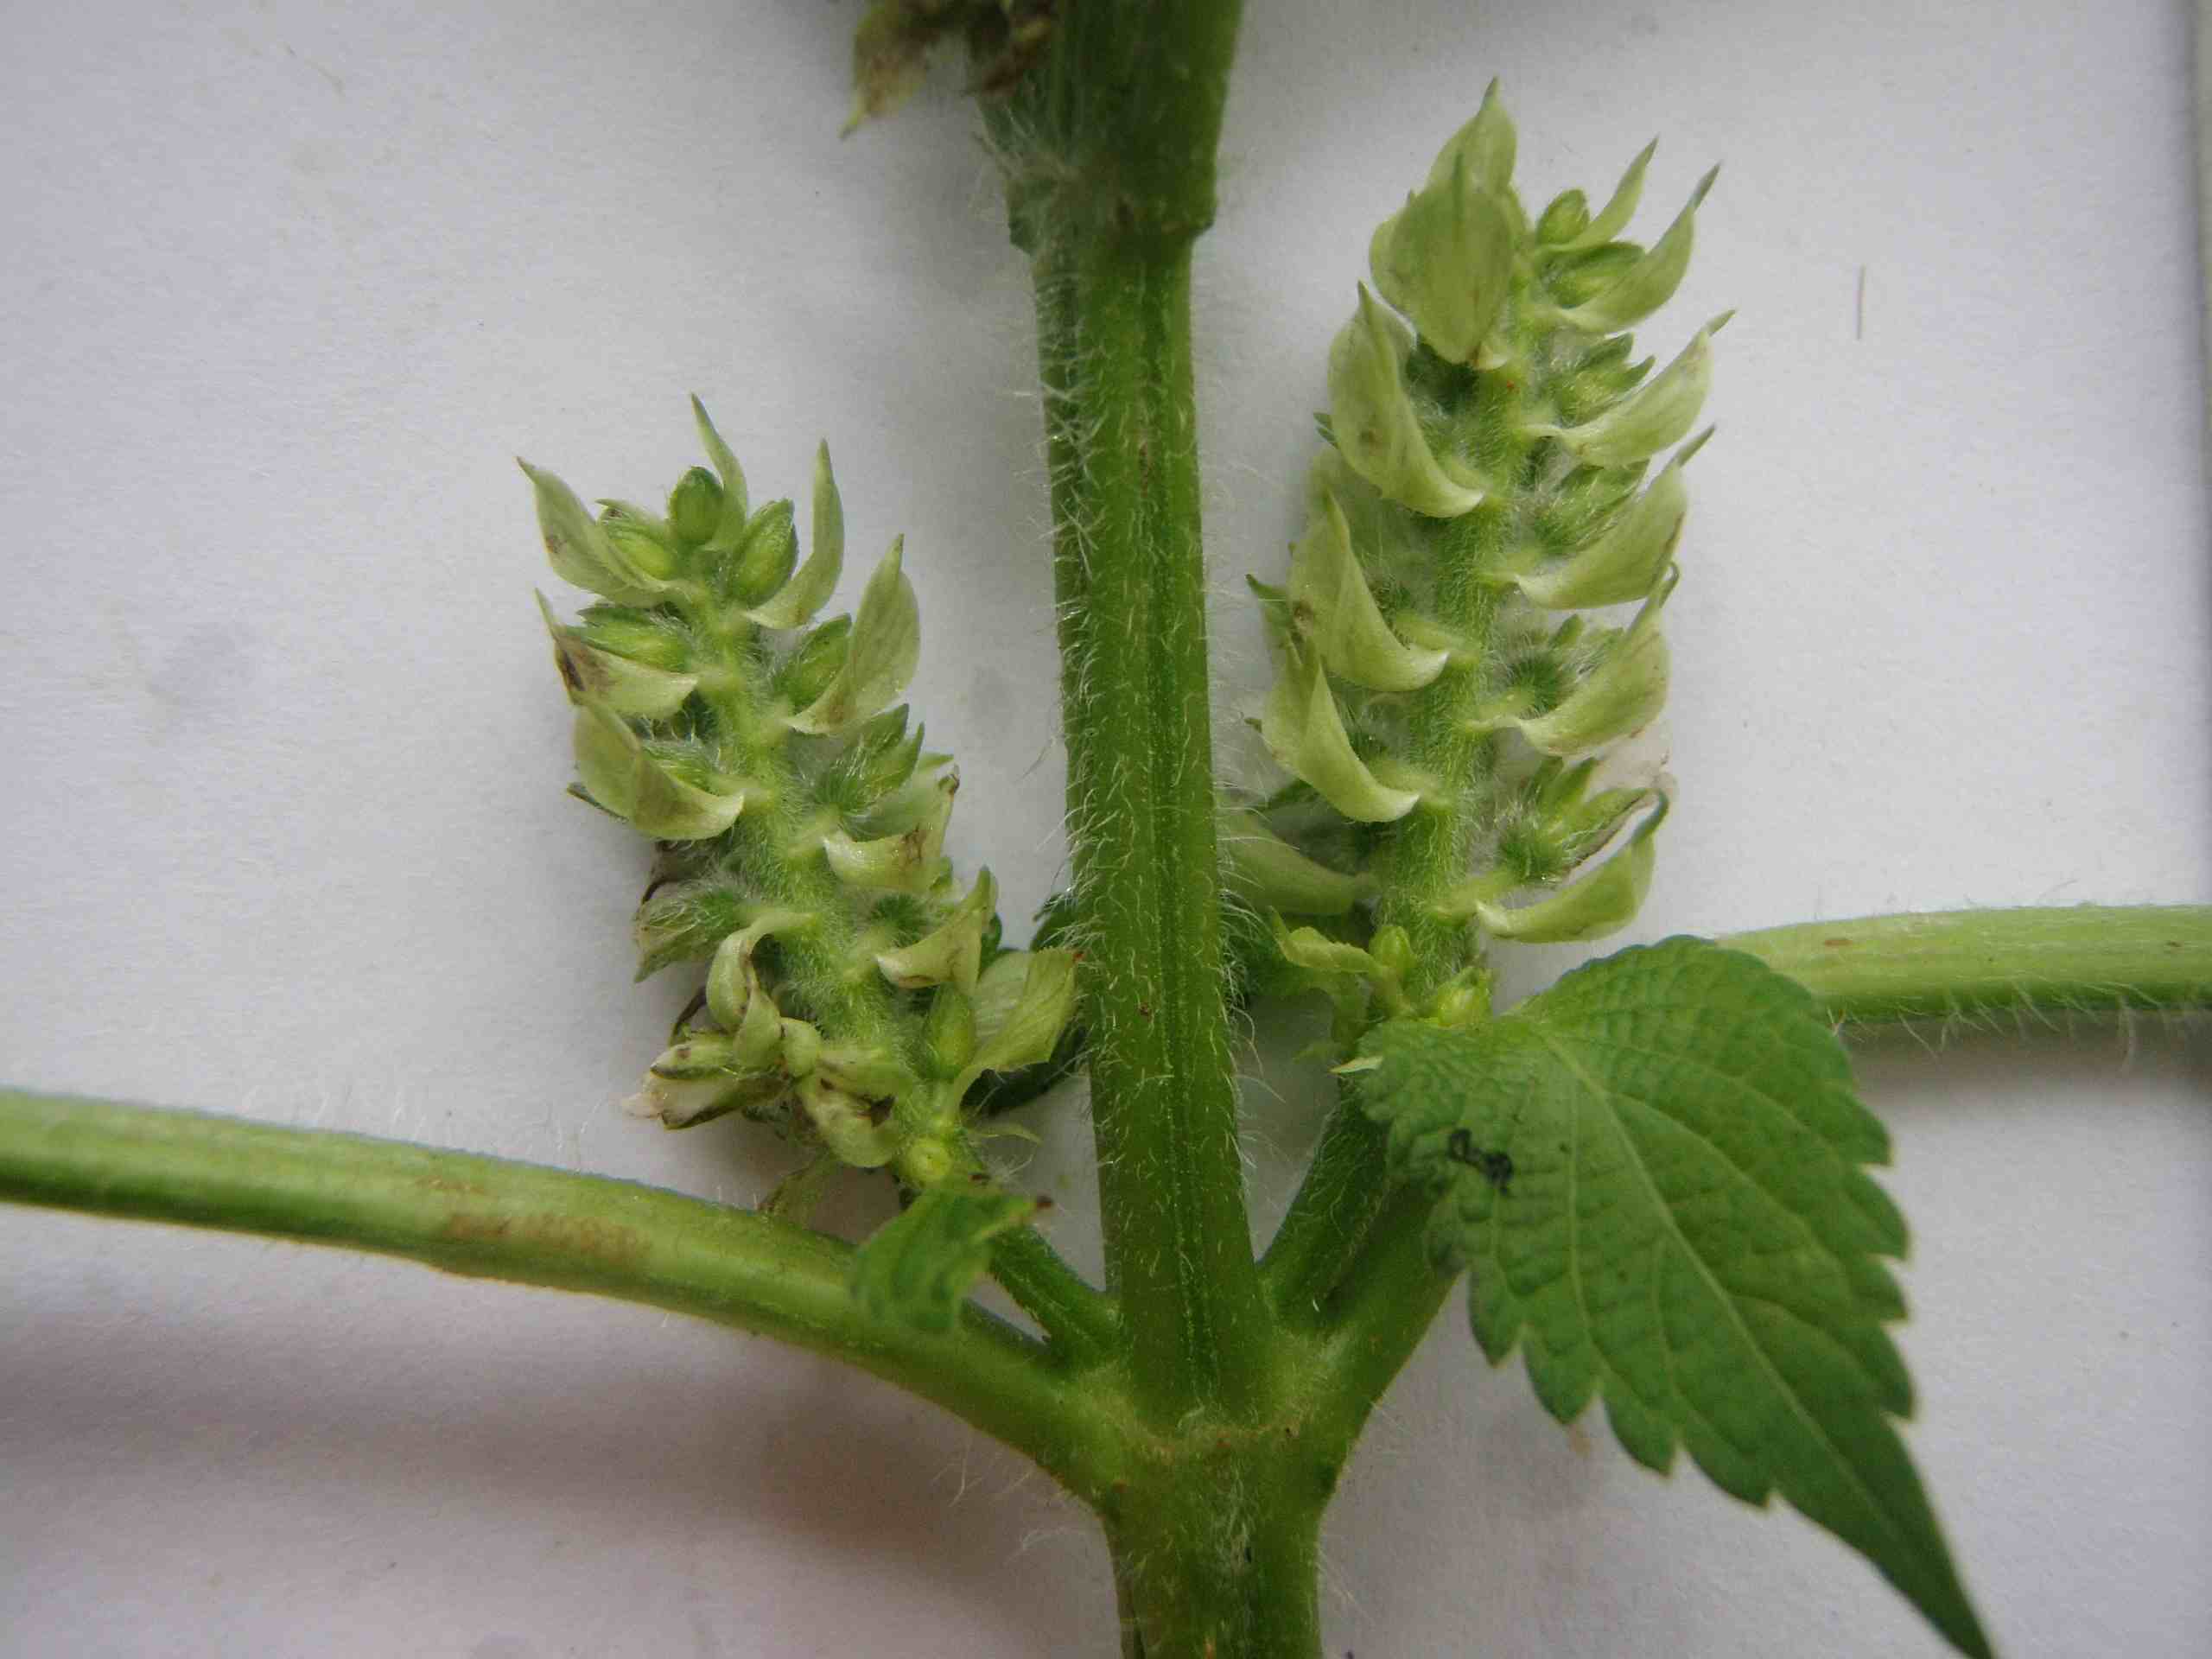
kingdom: Plantae
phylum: Tracheophyta
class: Magnoliopsida
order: Lamiales
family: Lamiaceae
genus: Perilla
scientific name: Perilla frutescens
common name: Perilla
